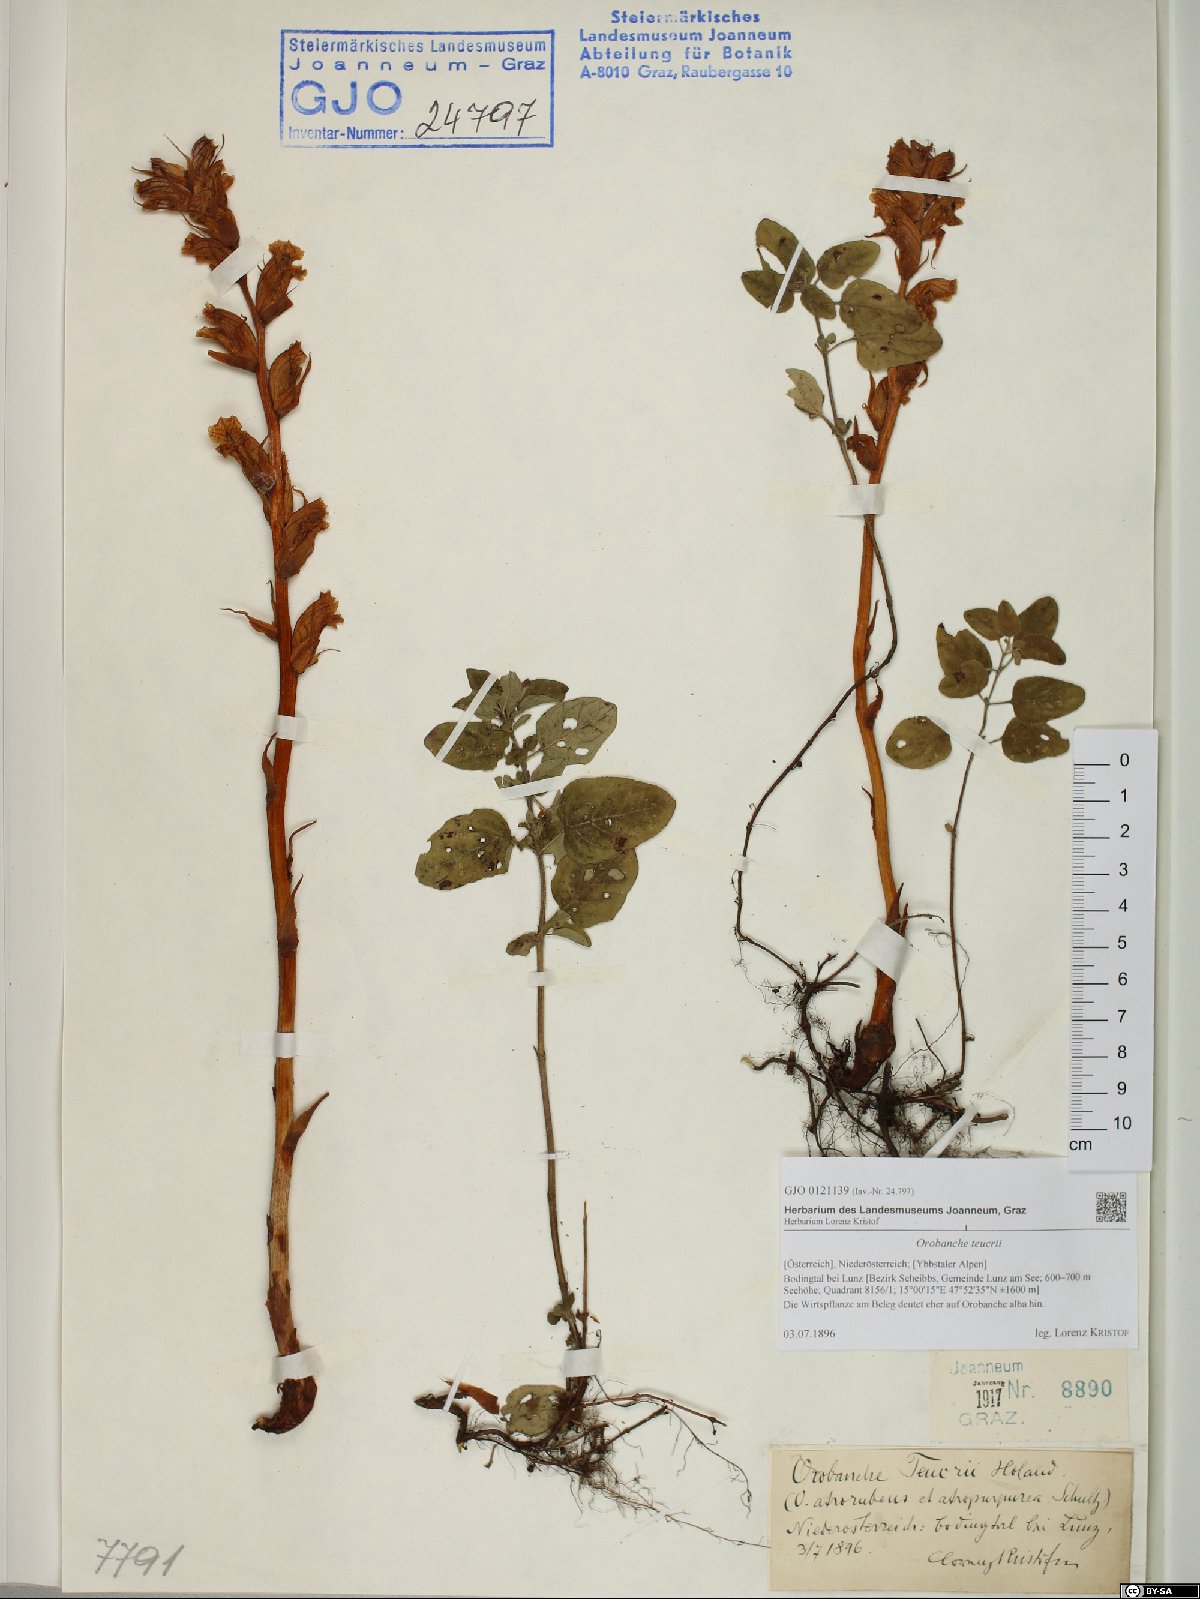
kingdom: Plantae
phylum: Tracheophyta
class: Magnoliopsida
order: Lamiales
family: Orobanchaceae
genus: Orobanche
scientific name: Orobanche teucrii
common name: Germander broomrape
